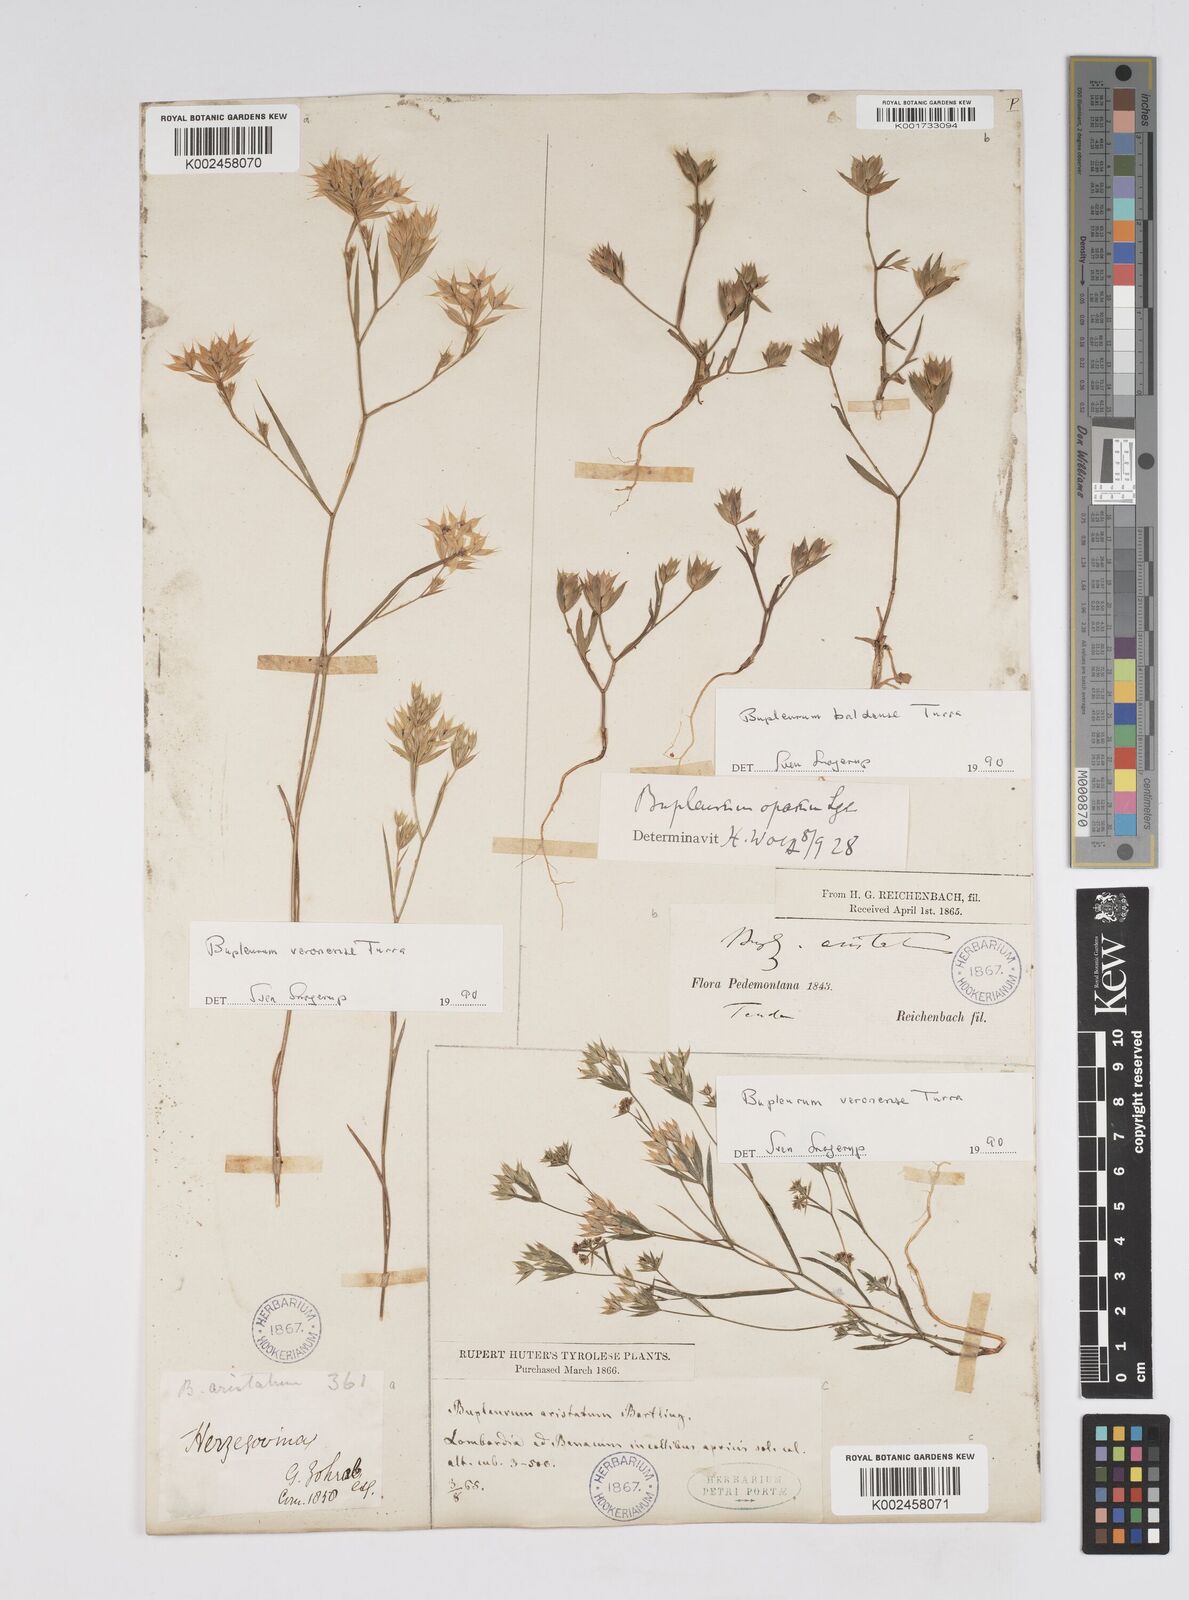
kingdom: Plantae
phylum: Tracheophyta
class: Magnoliopsida
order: Apiales
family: Apiaceae
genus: Bupleurum
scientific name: Bupleurum baldense
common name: Small hare's-ear
